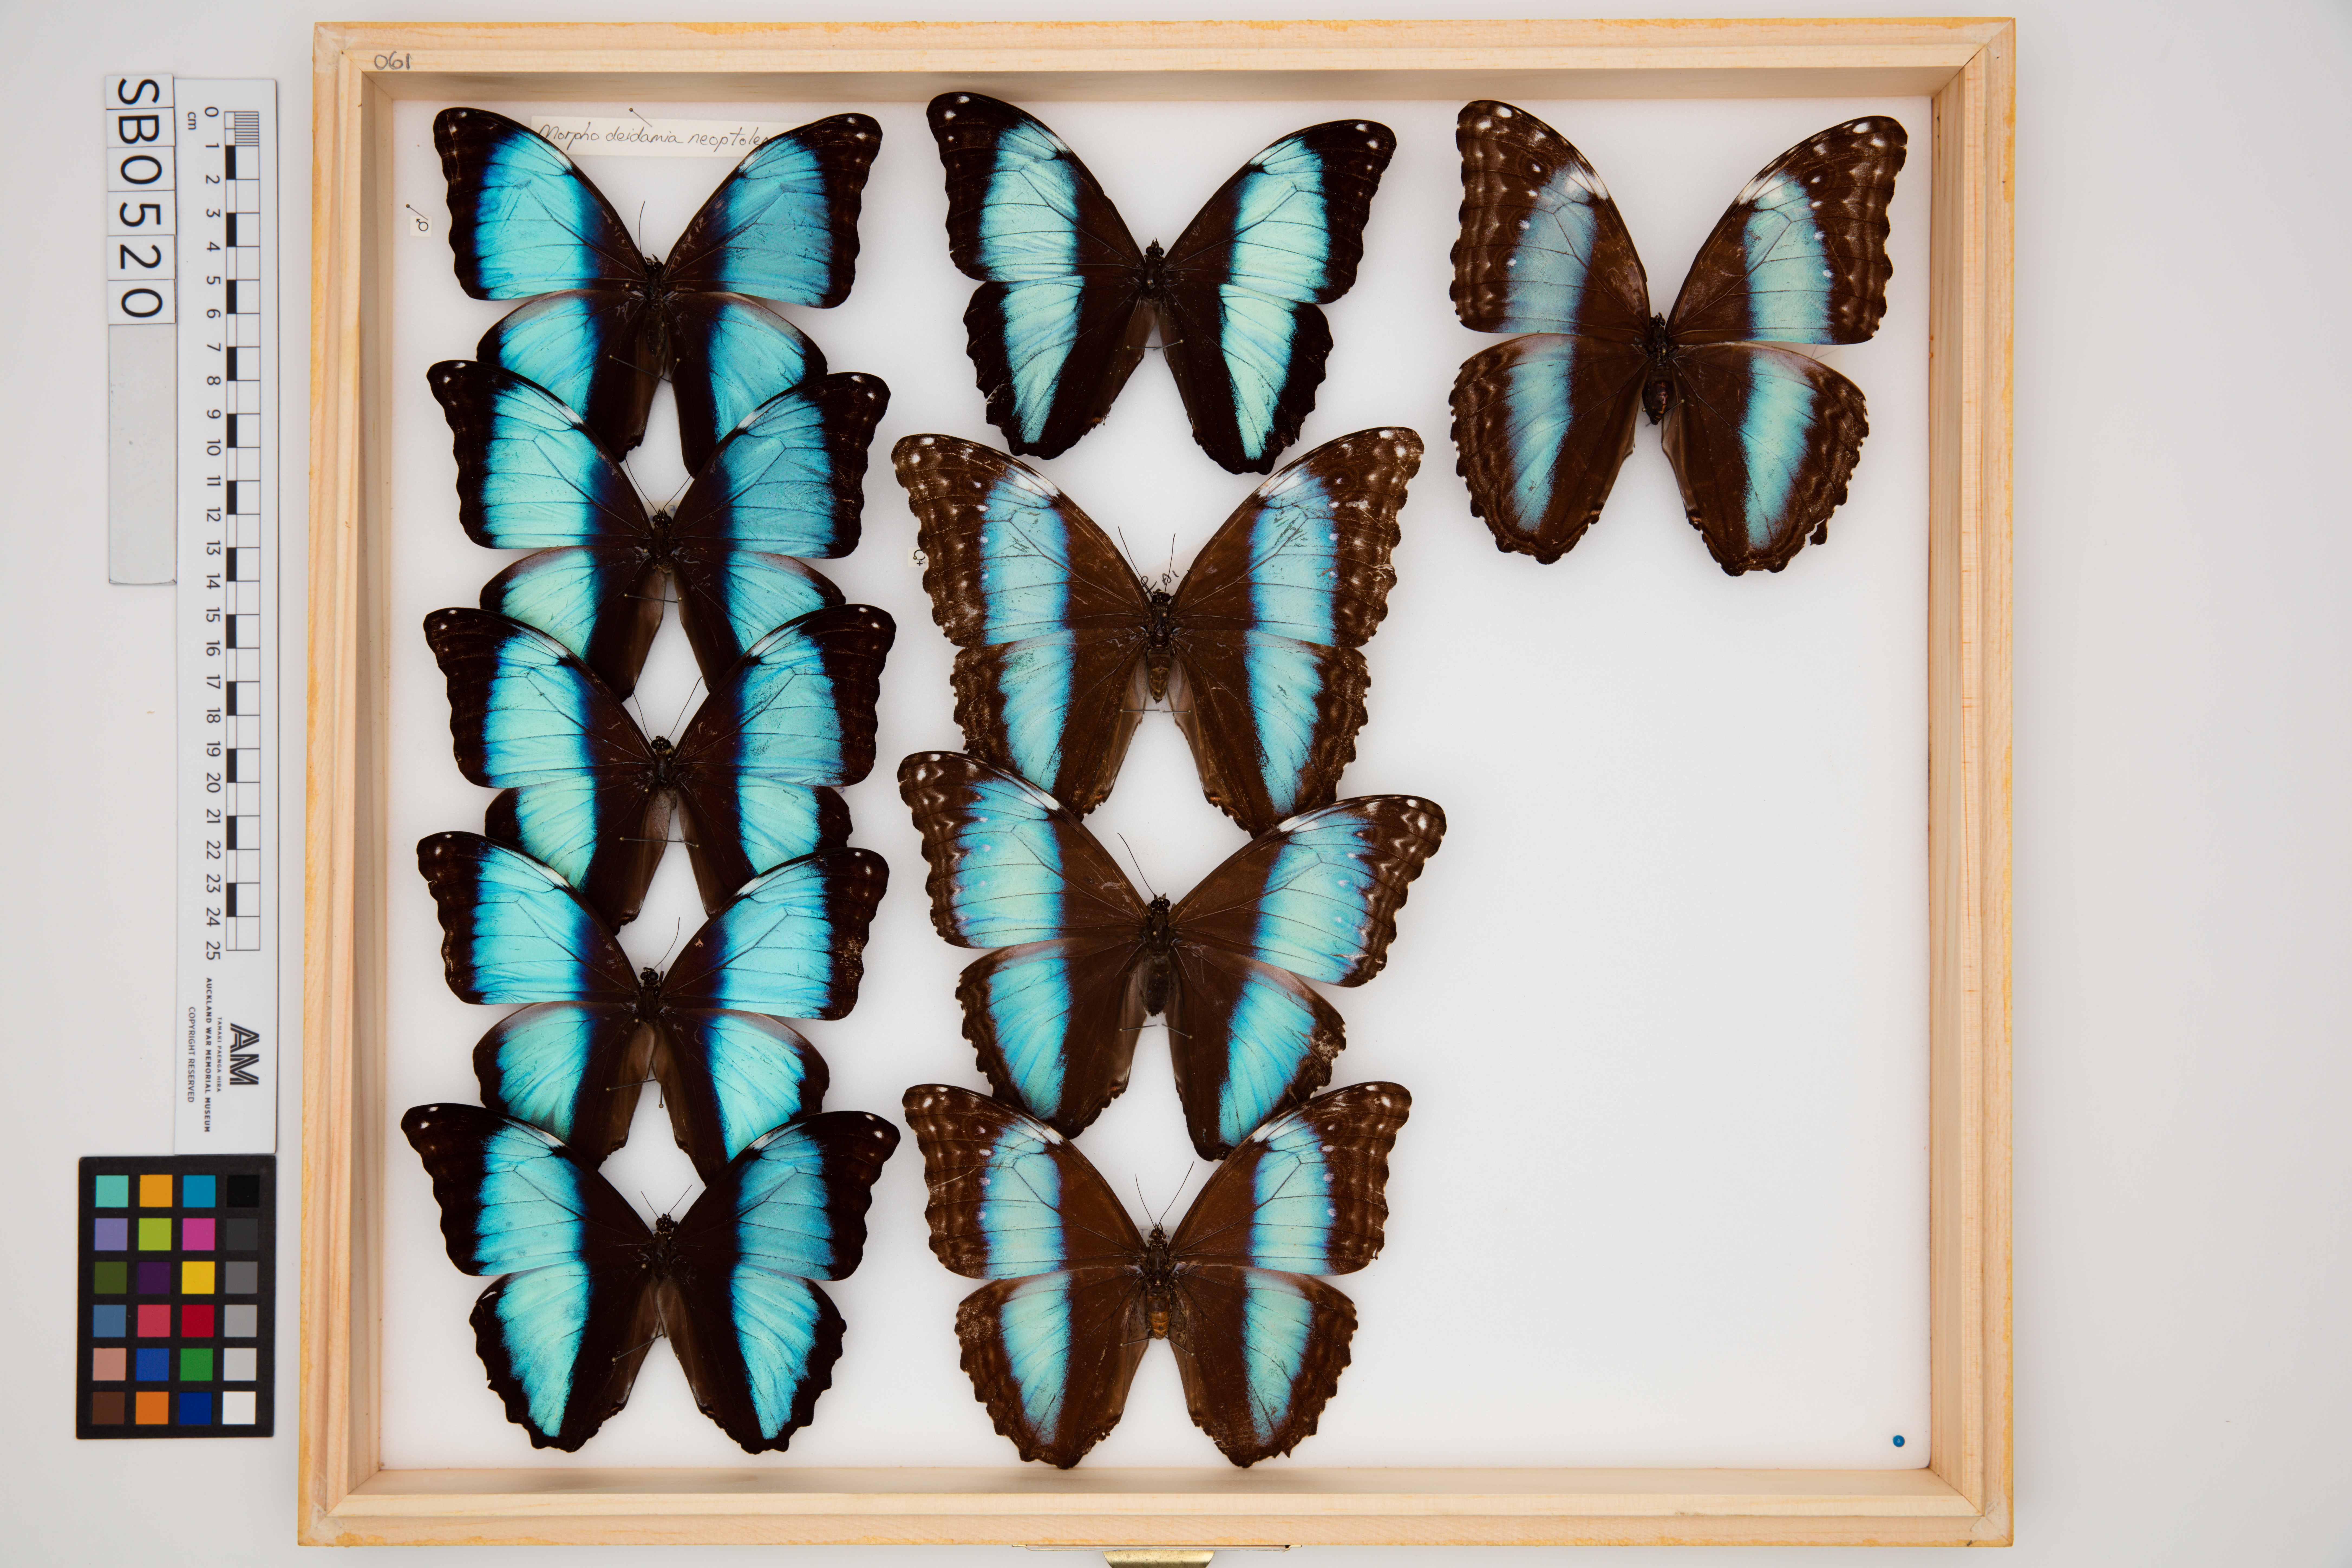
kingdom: Animalia
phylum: Arthropoda
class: Insecta
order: Lepidoptera
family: Nymphalidae
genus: Morpho
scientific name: Morpho deidamia
